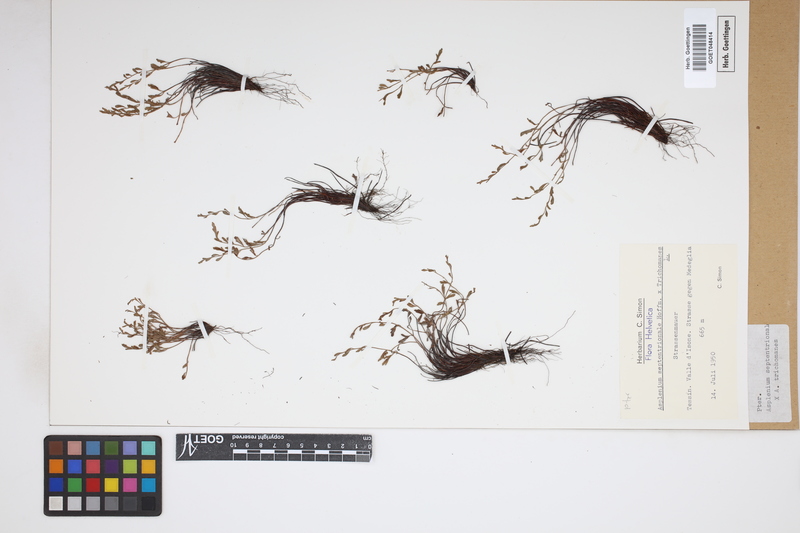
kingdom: Plantae
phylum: Tracheophyta
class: Polypodiopsida
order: Polypodiales
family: Aspleniaceae
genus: Asplenium
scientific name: Asplenium
